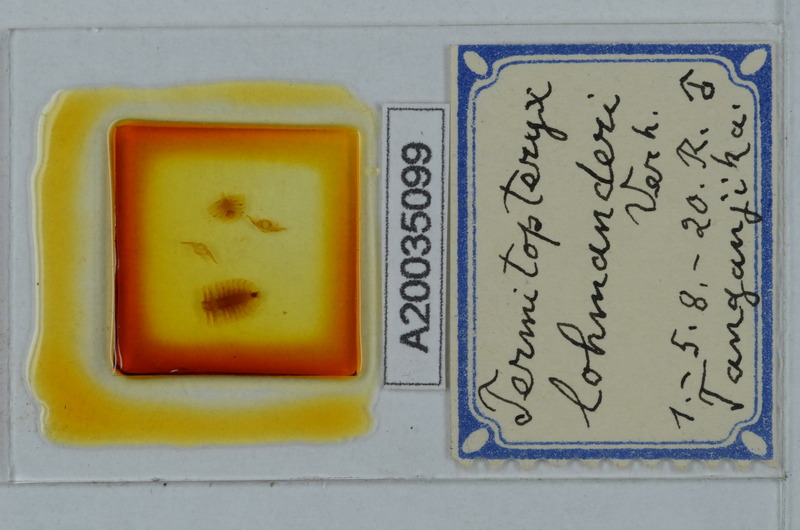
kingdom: Animalia
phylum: Arthropoda
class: Diplopoda
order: Polydesmida
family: Pyrgodesmidae
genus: Termitopteryx
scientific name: Termitopteryx lohmanderi
